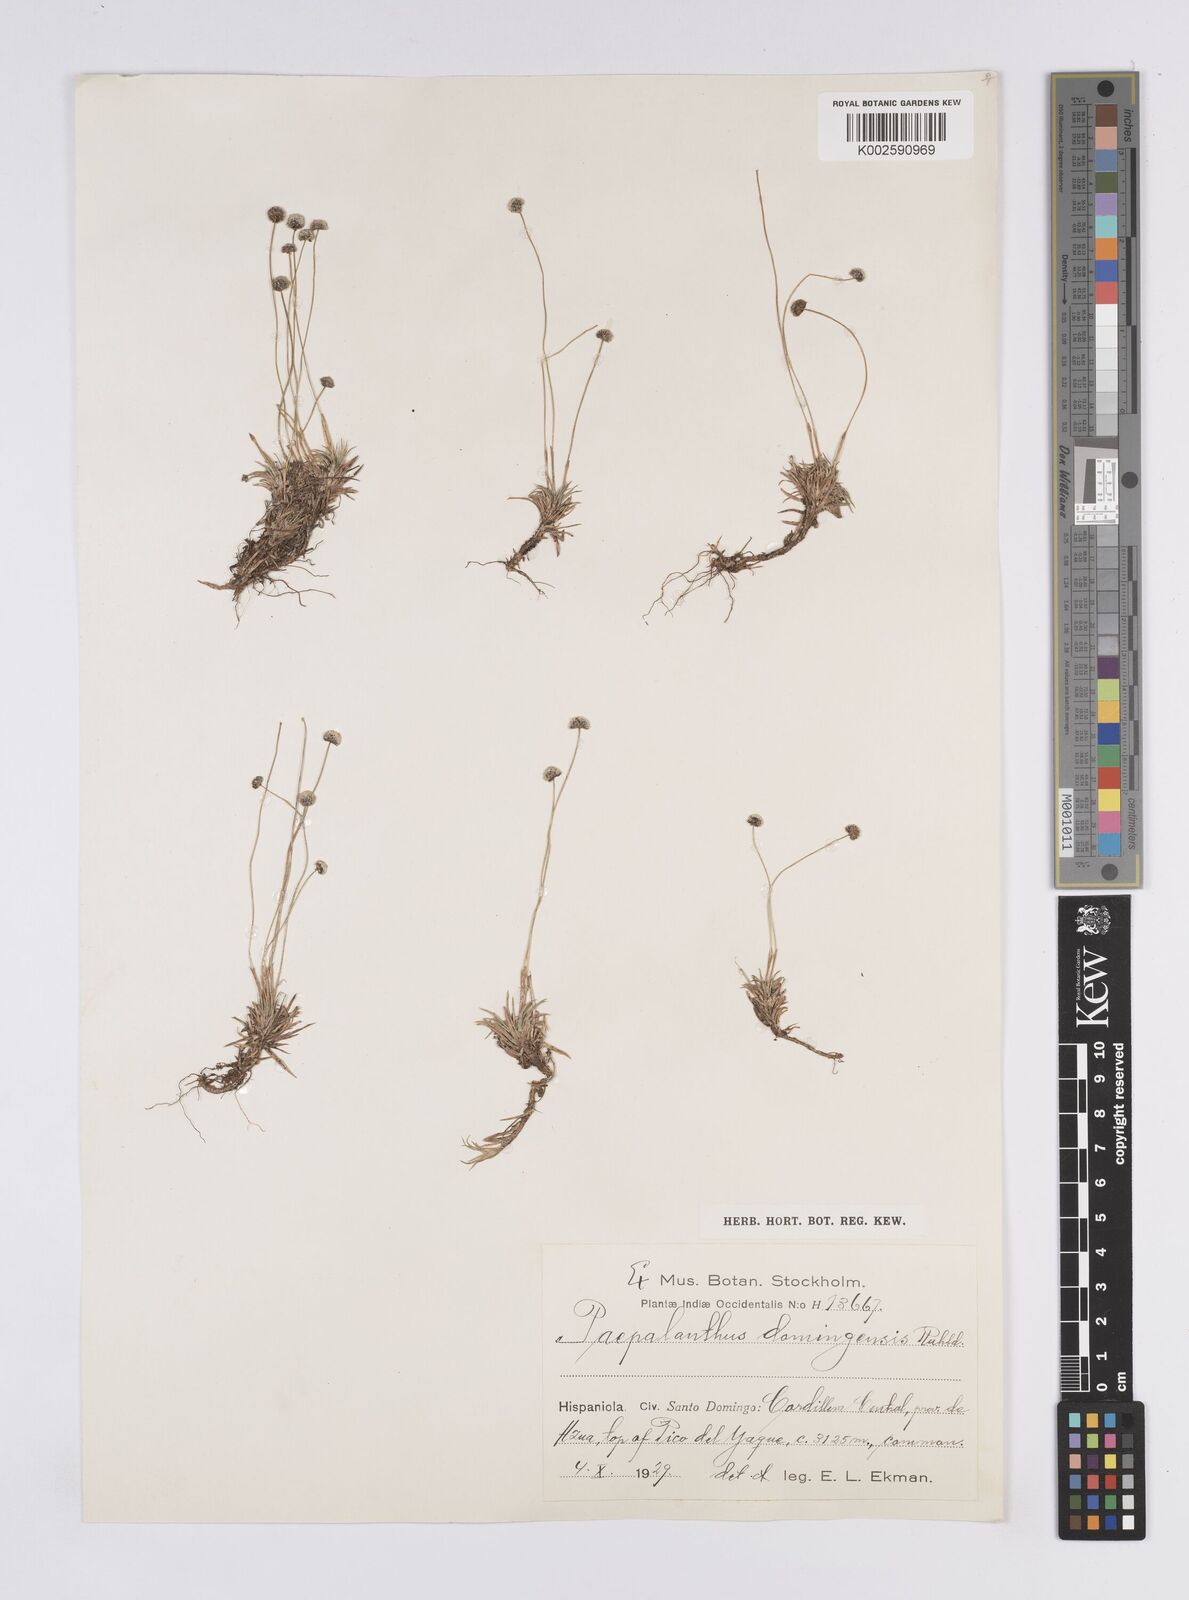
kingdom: Plantae
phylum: Tracheophyta
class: Liliopsida
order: Poales
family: Eriocaulaceae
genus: Paepalanthus
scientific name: Paepalanthus repens
